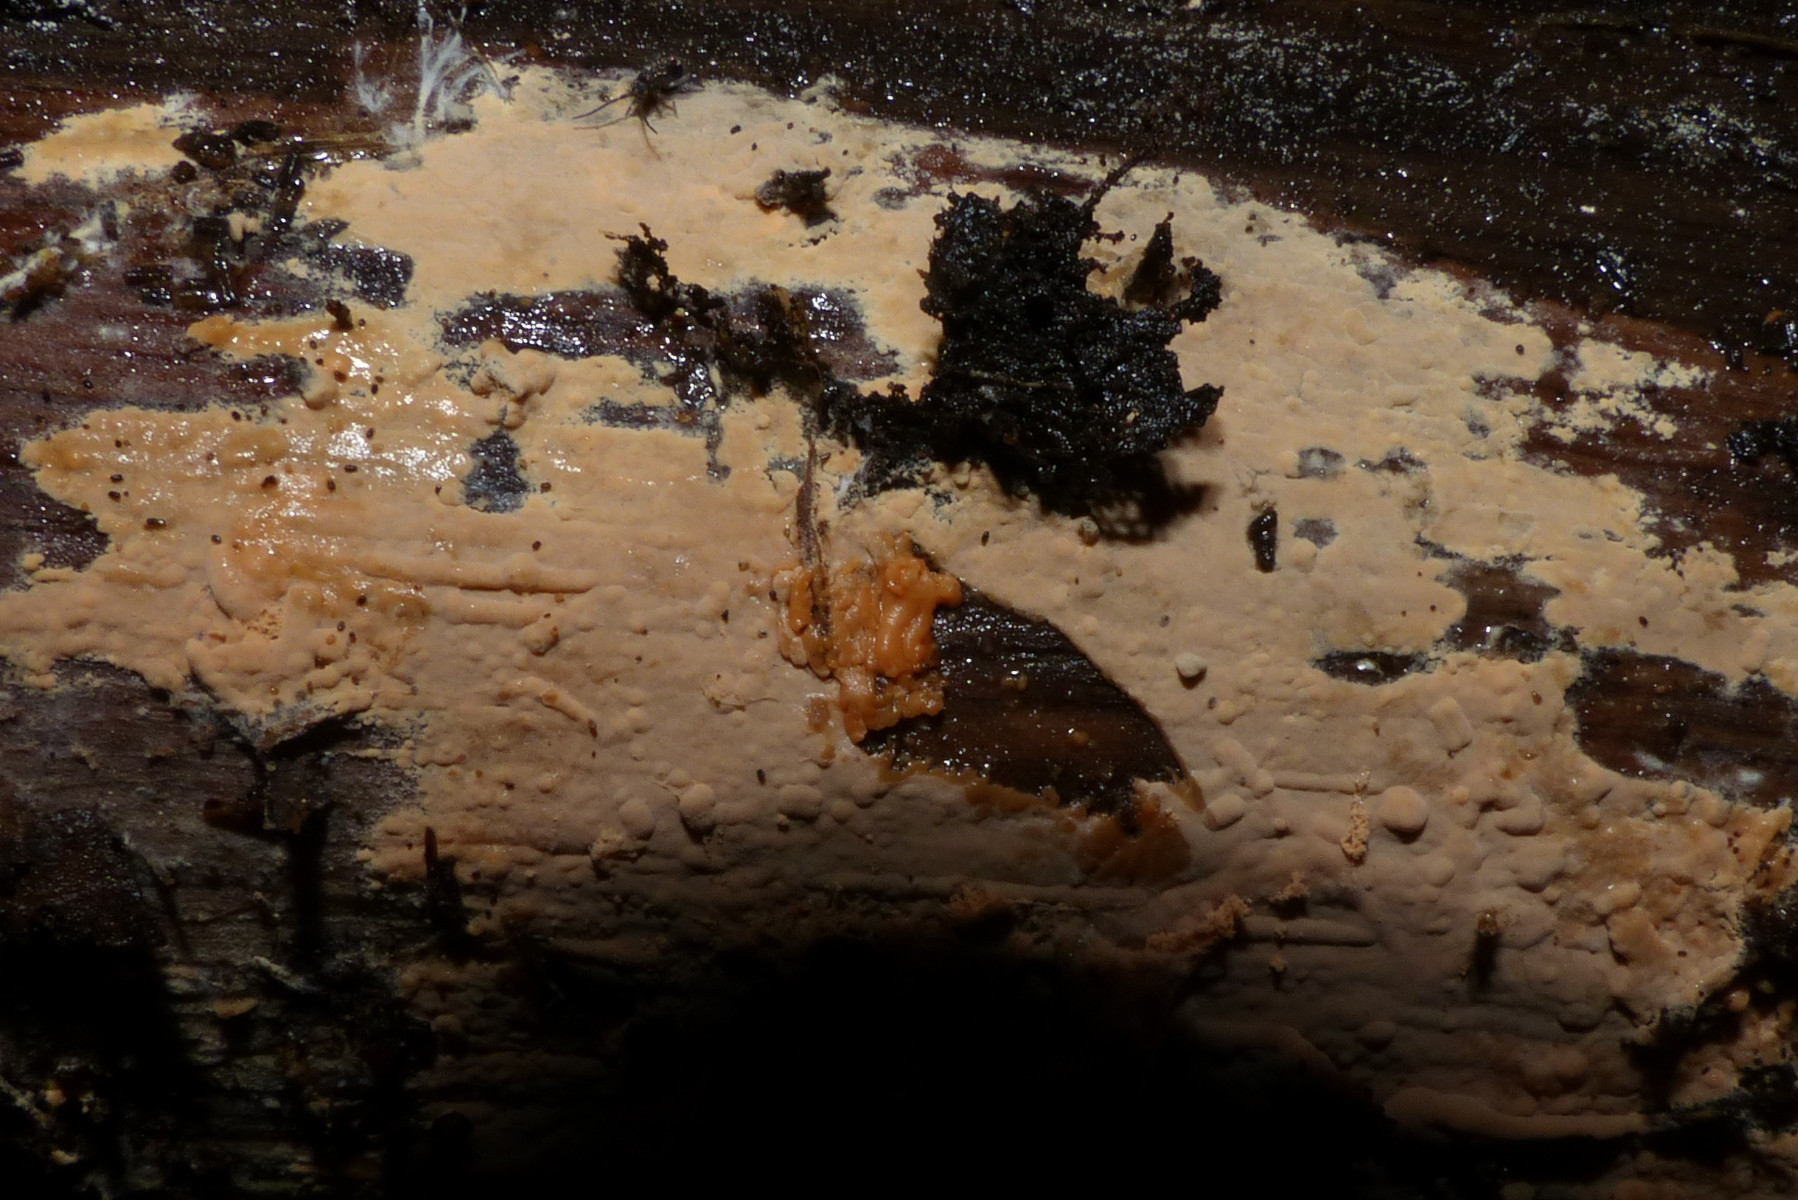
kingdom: Fungi
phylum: Basidiomycota
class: Agaricomycetes
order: Russulales
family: Peniophoraceae
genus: Peniophora
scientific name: Peniophora incarnata
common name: laksefarvet voksskind
